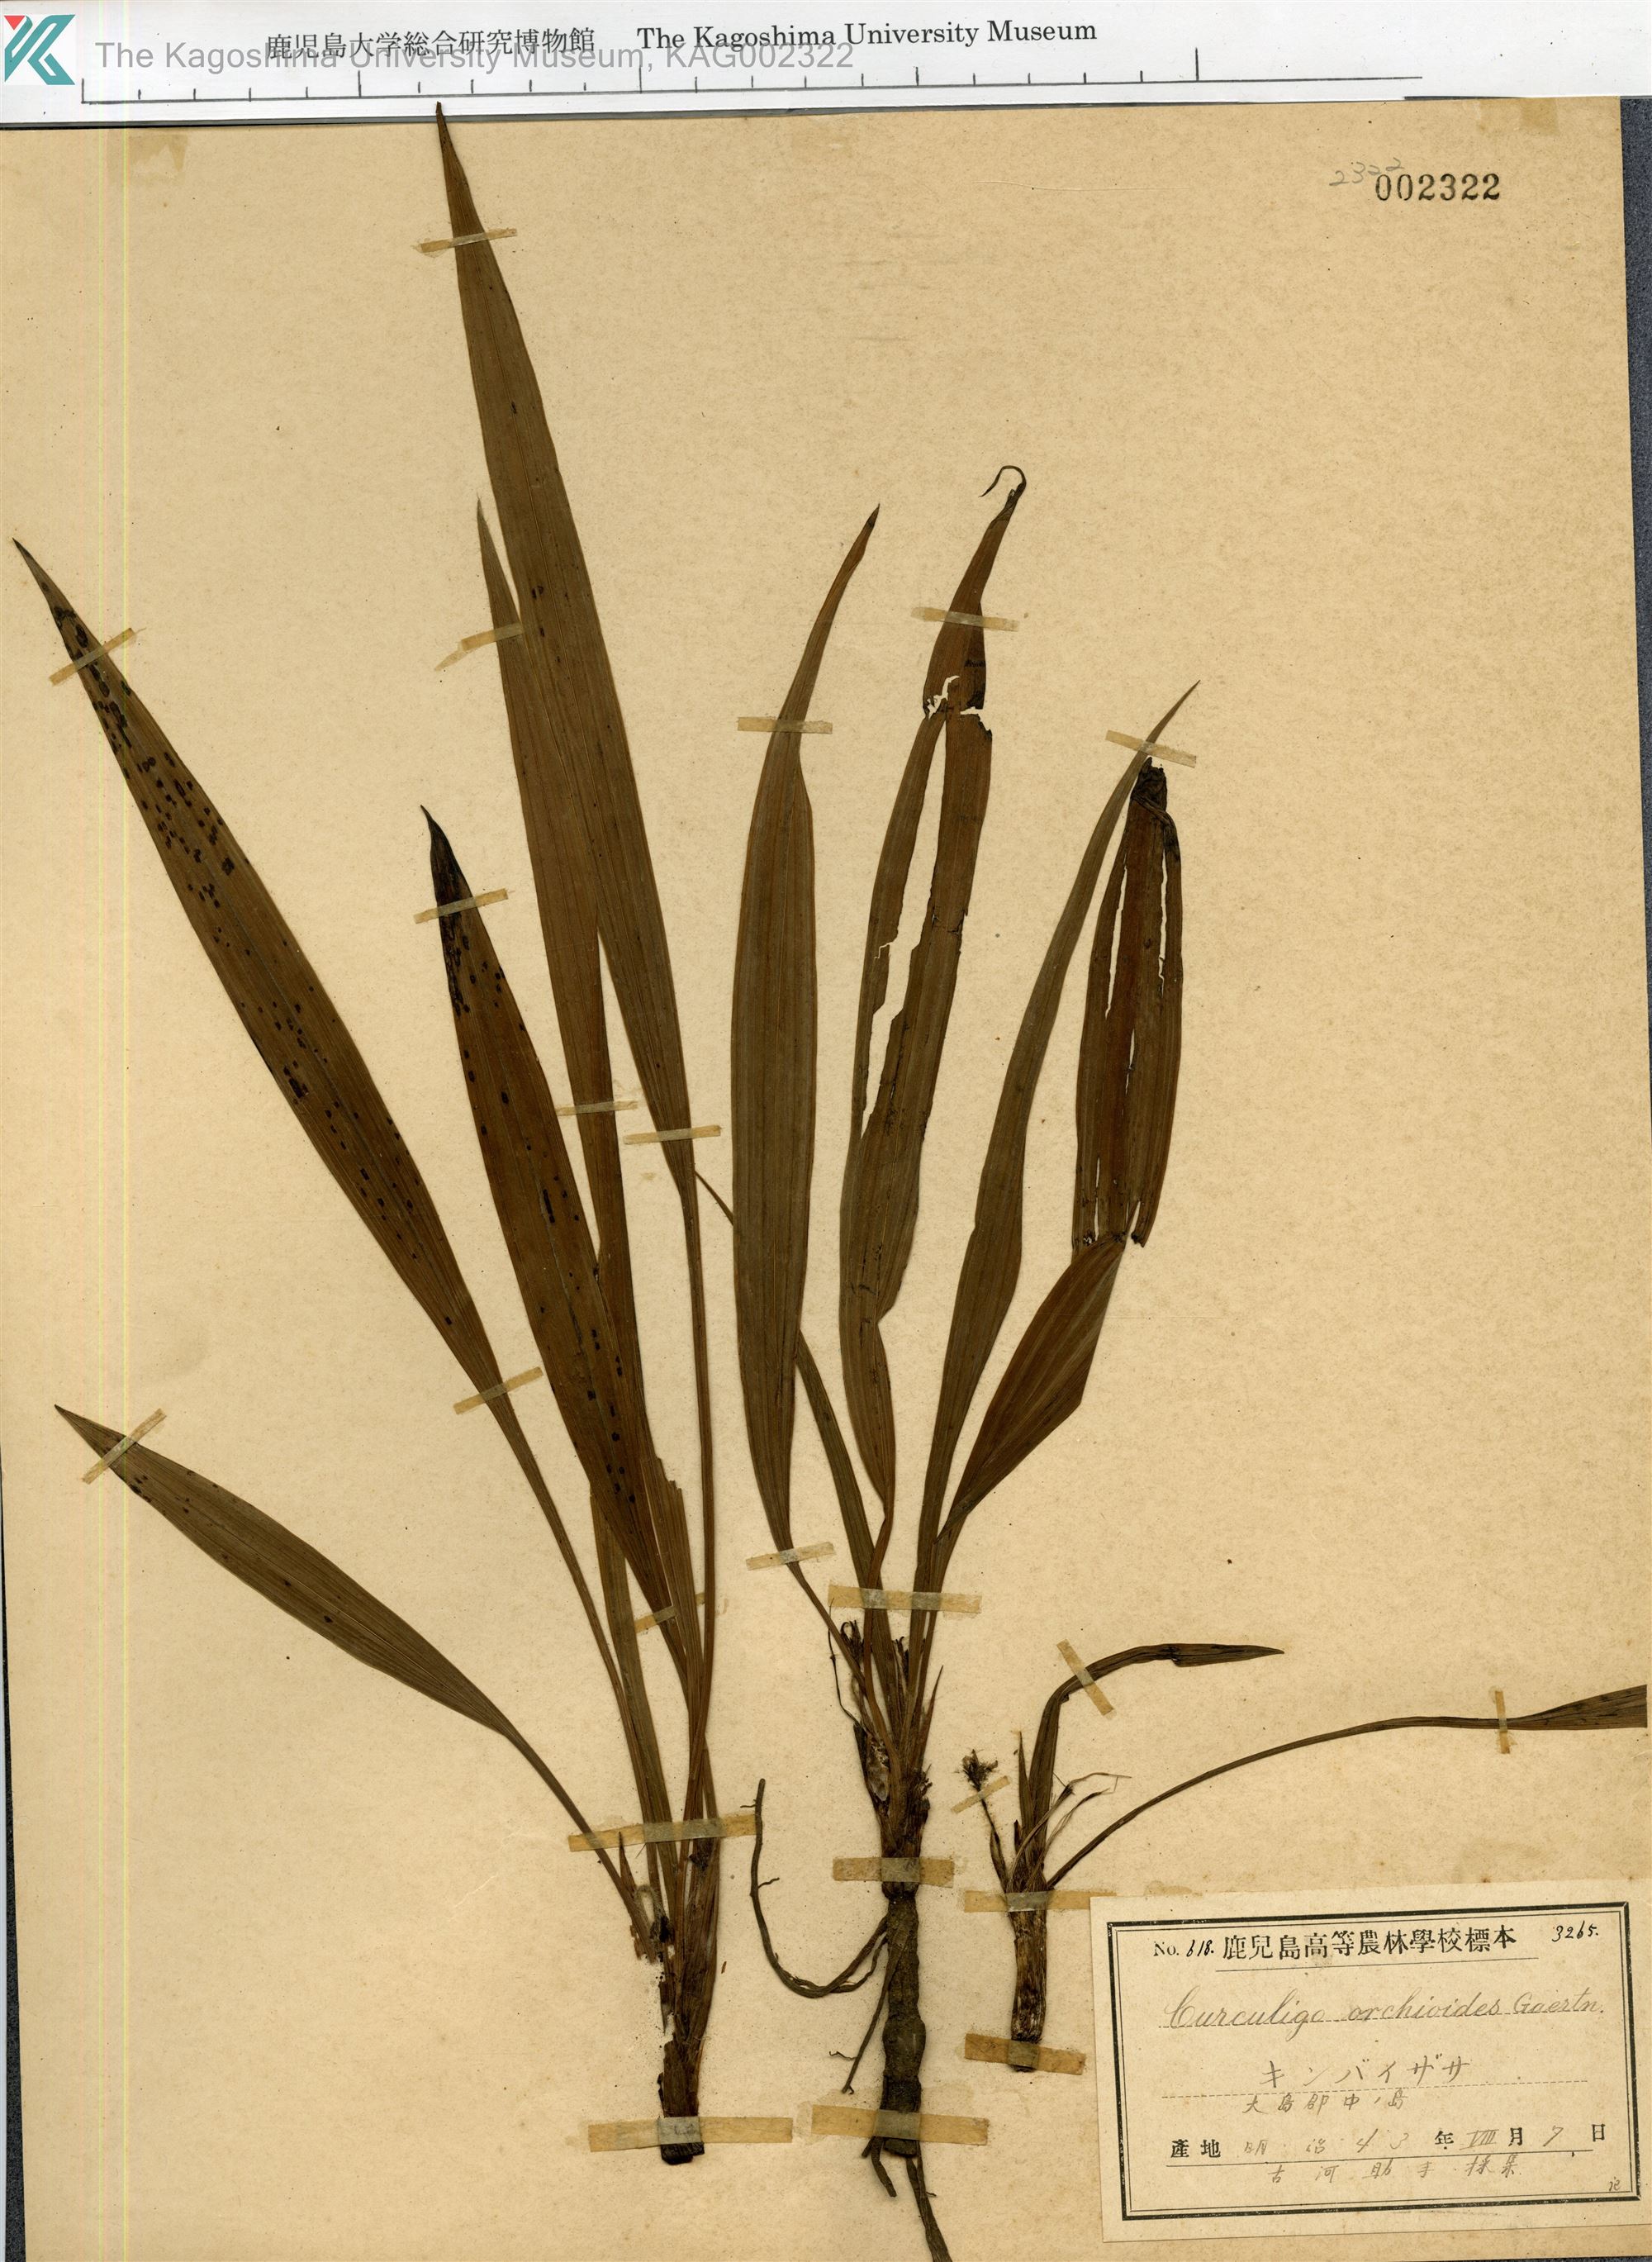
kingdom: Plantae
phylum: Tracheophyta
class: Liliopsida
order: Asparagales
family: Hypoxidaceae
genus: Curculigo
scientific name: Curculigo orchioides
